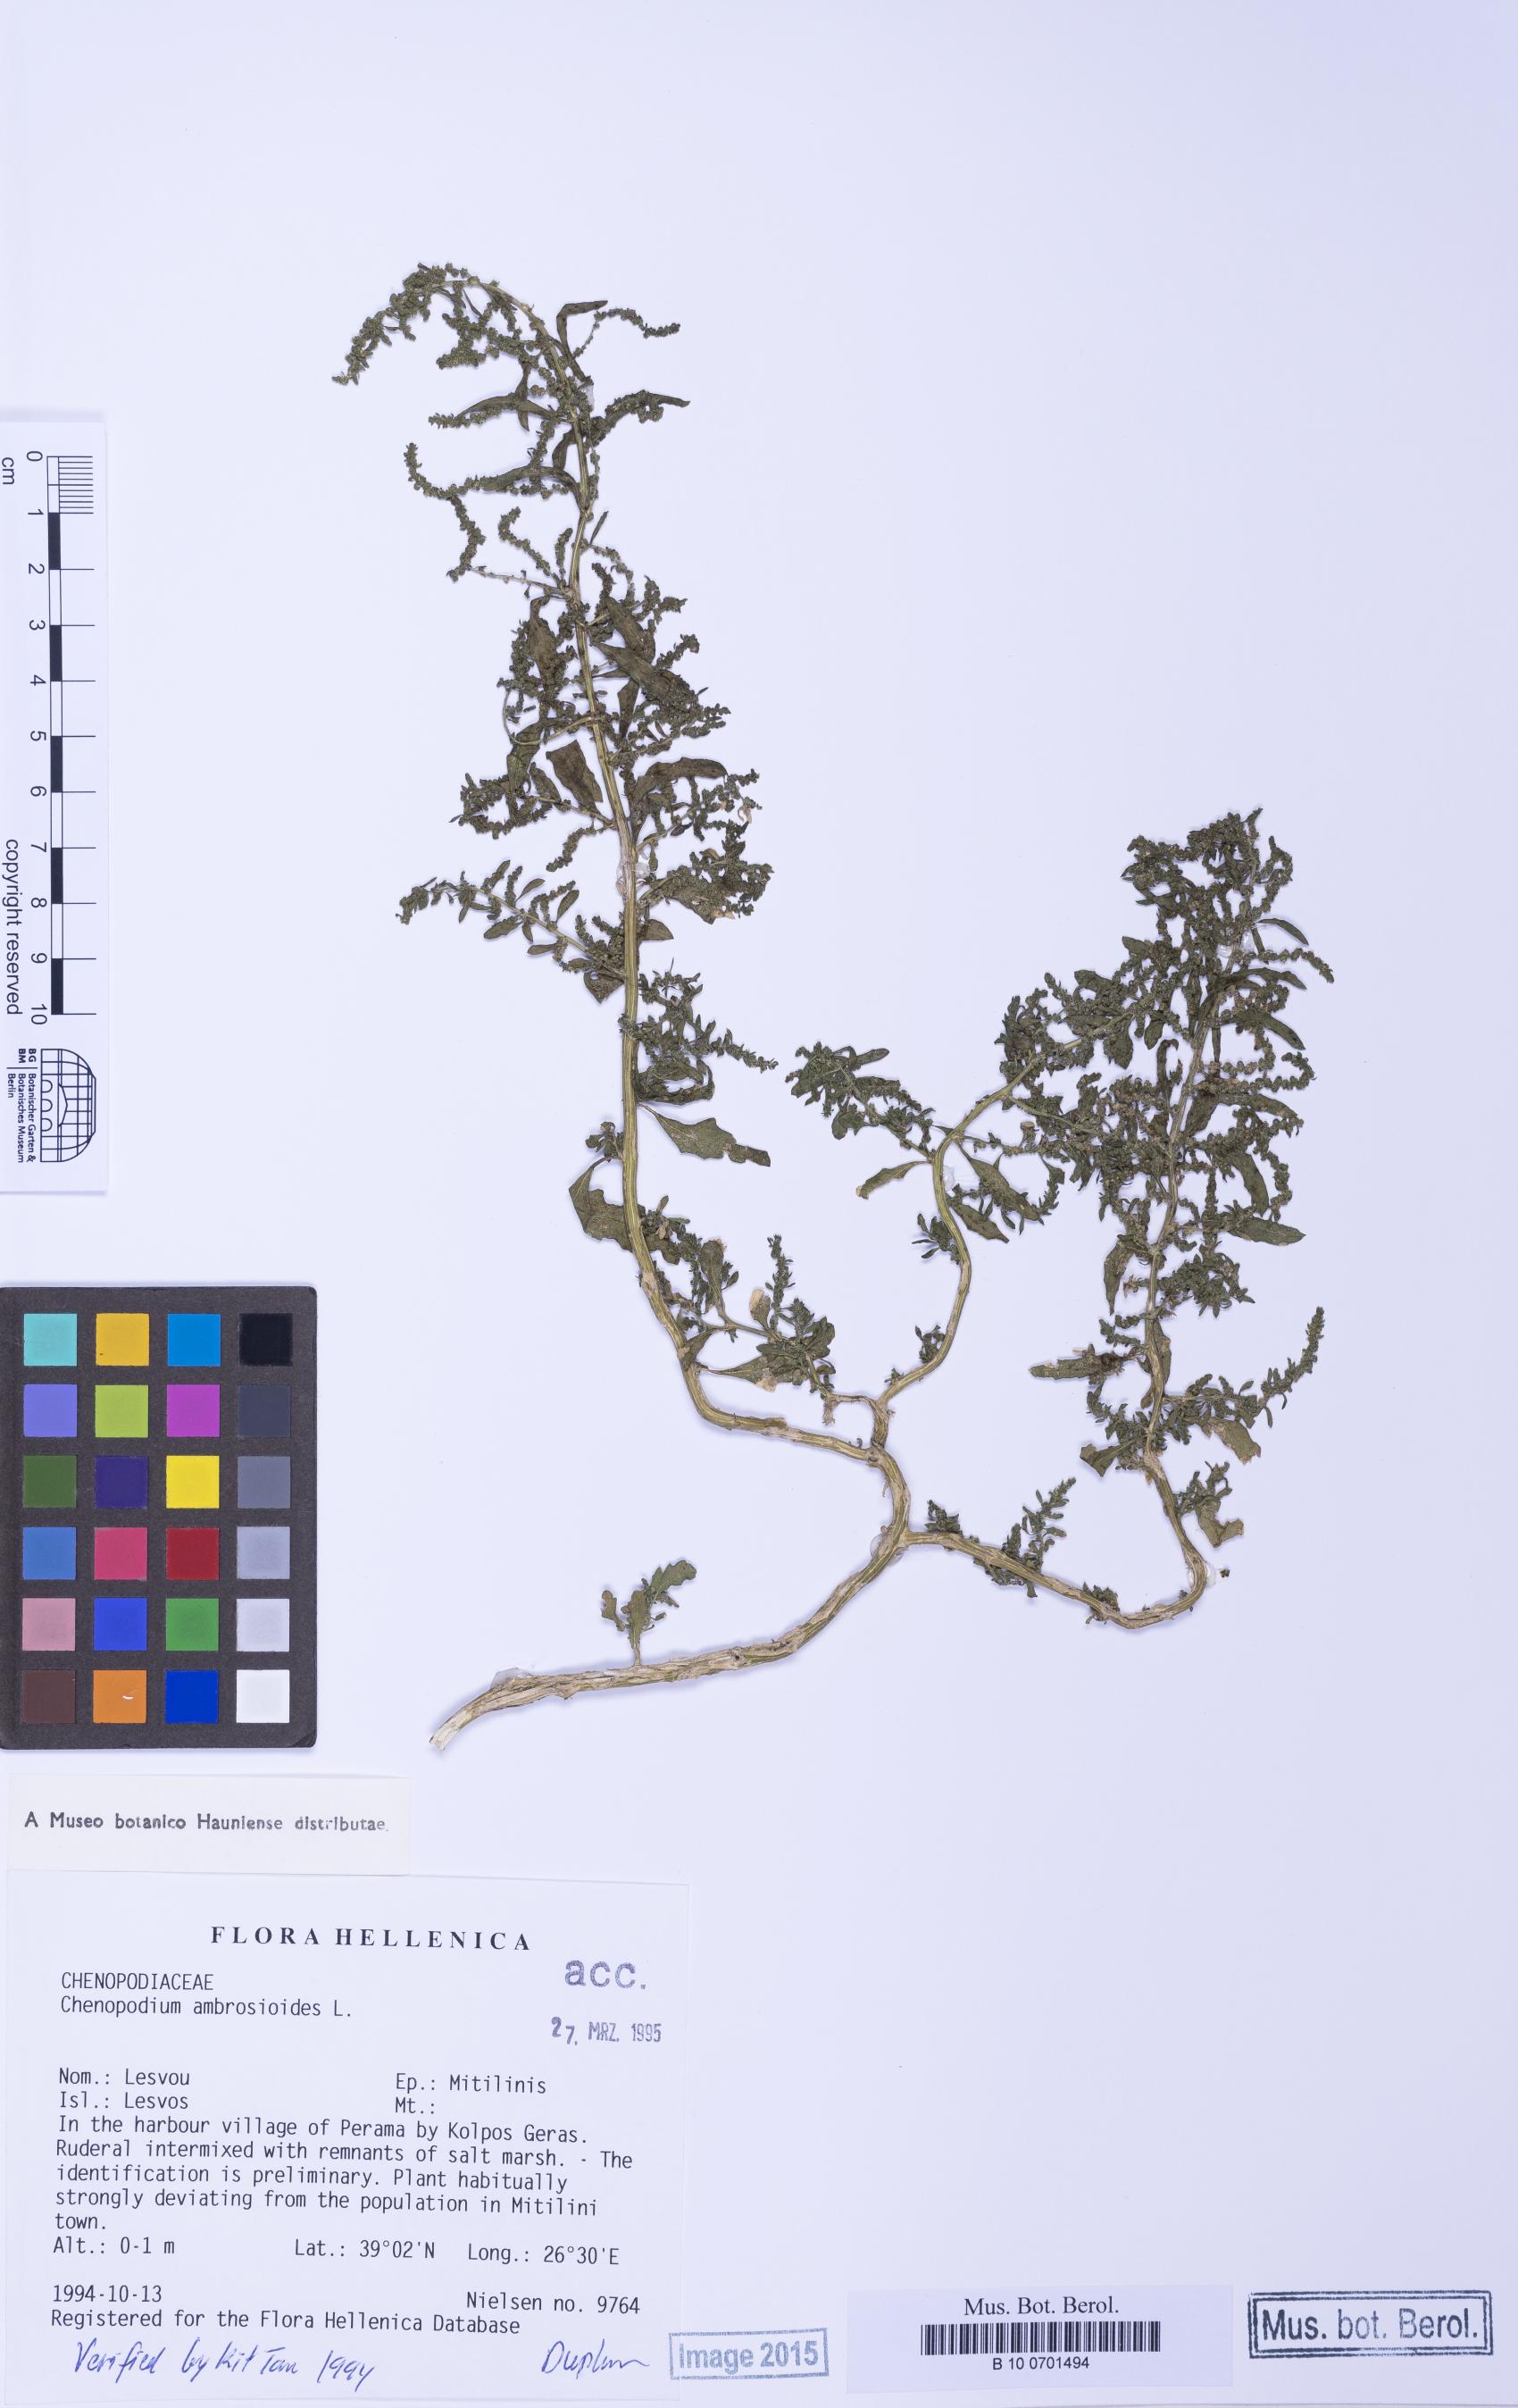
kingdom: Plantae
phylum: Tracheophyta
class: Magnoliopsida
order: Caryophyllales
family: Amaranthaceae
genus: Dysphania
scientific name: Dysphania ambrosioides
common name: Wormseed
